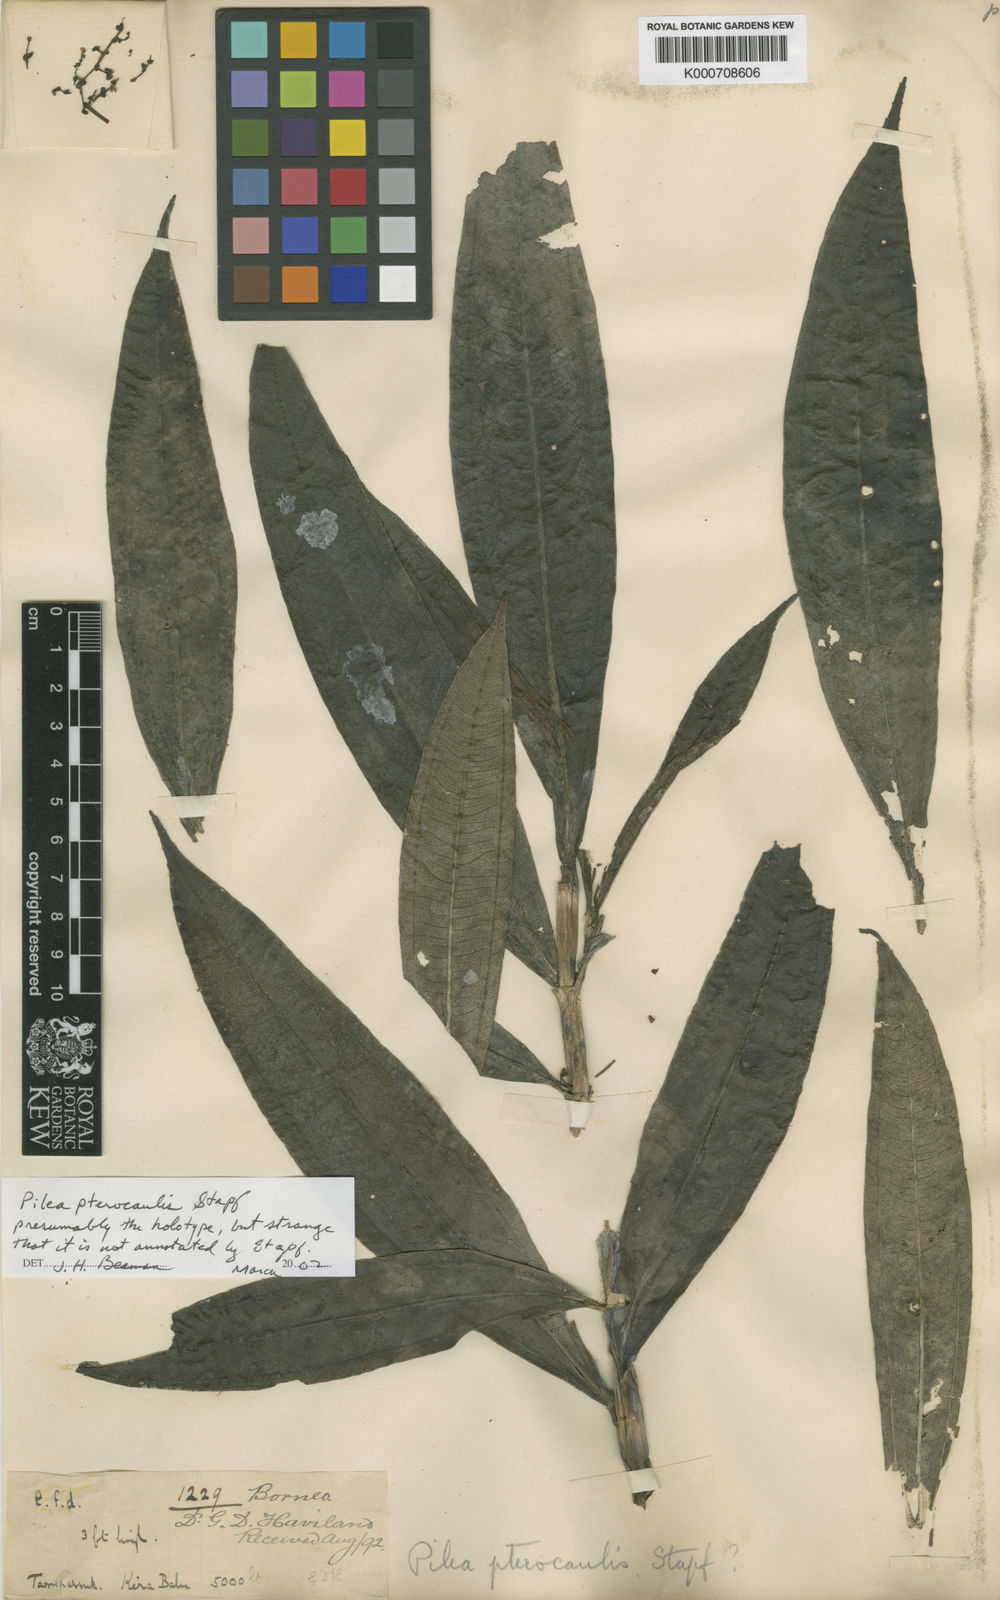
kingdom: Plantae
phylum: Tracheophyta
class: Magnoliopsida
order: Rosales
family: Urticaceae
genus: Pilea
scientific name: Pilea pterocaulis
